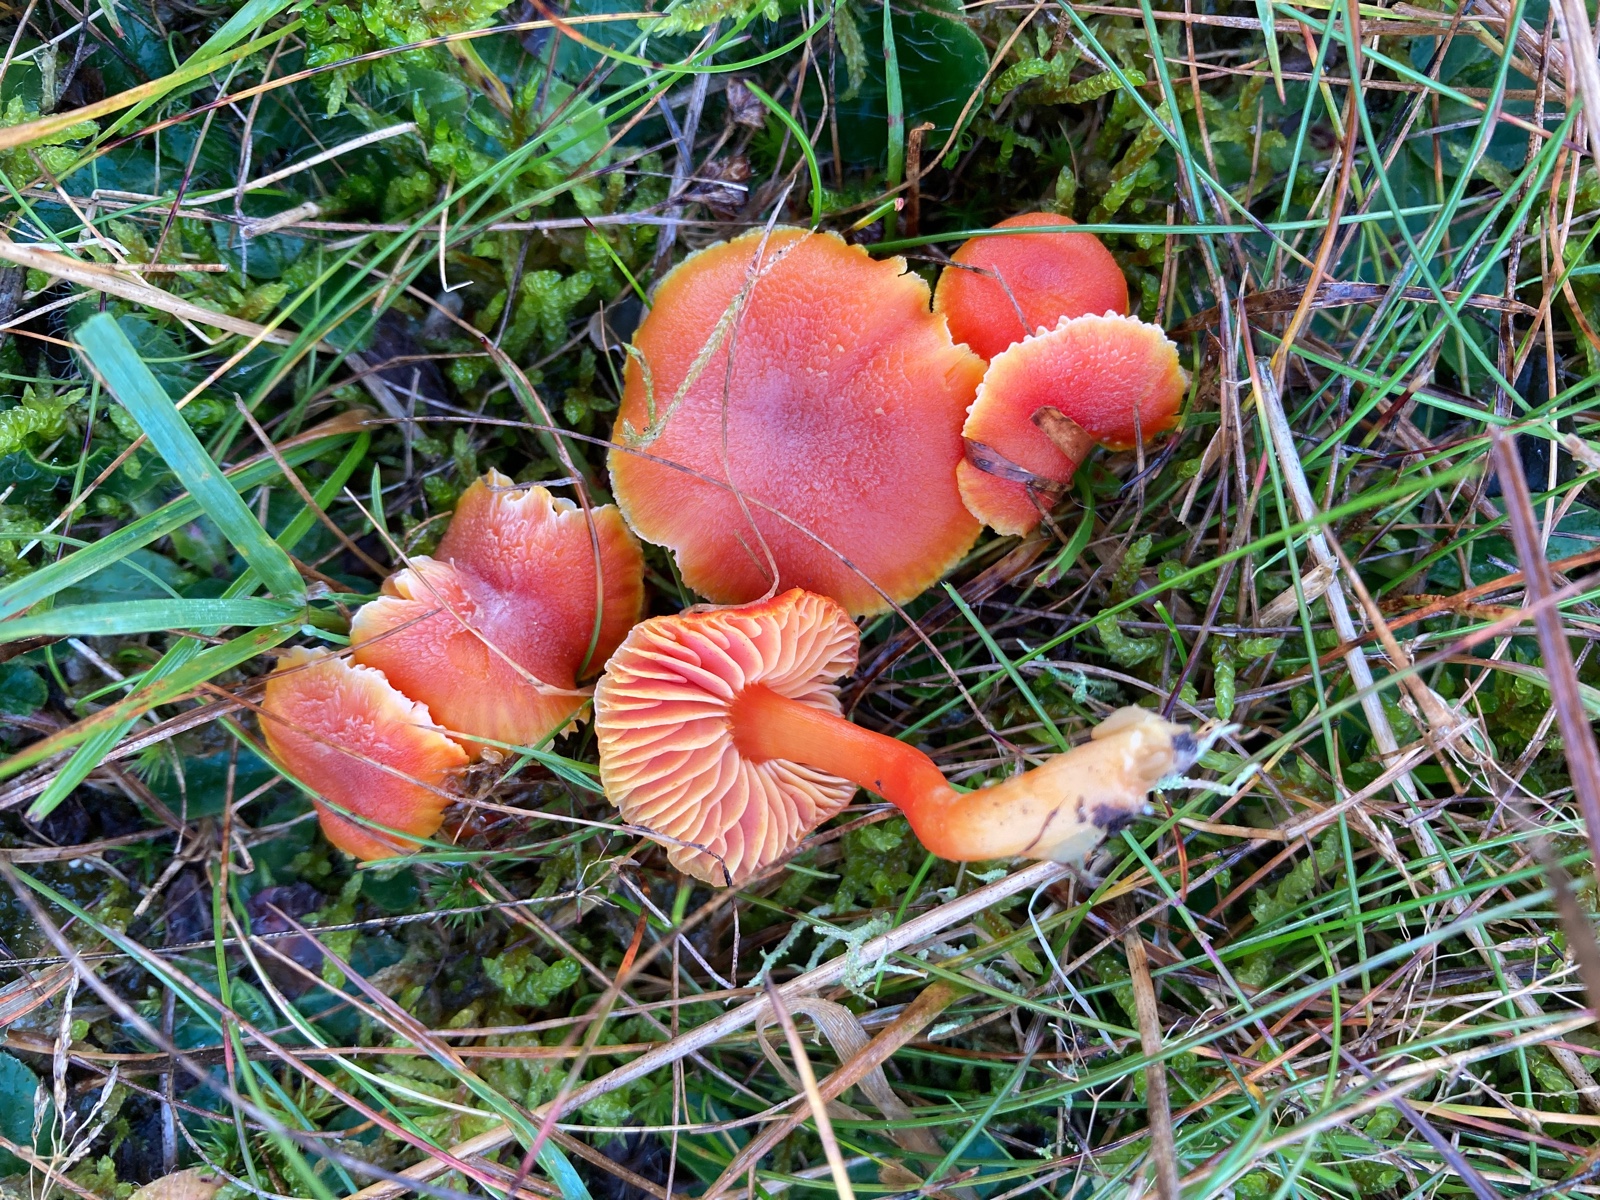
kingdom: Fungi
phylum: Basidiomycota
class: Agaricomycetes
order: Agaricales
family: Hygrophoraceae
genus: Hygrocybe
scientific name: Hygrocybe miniata
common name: mønje-vokshat
